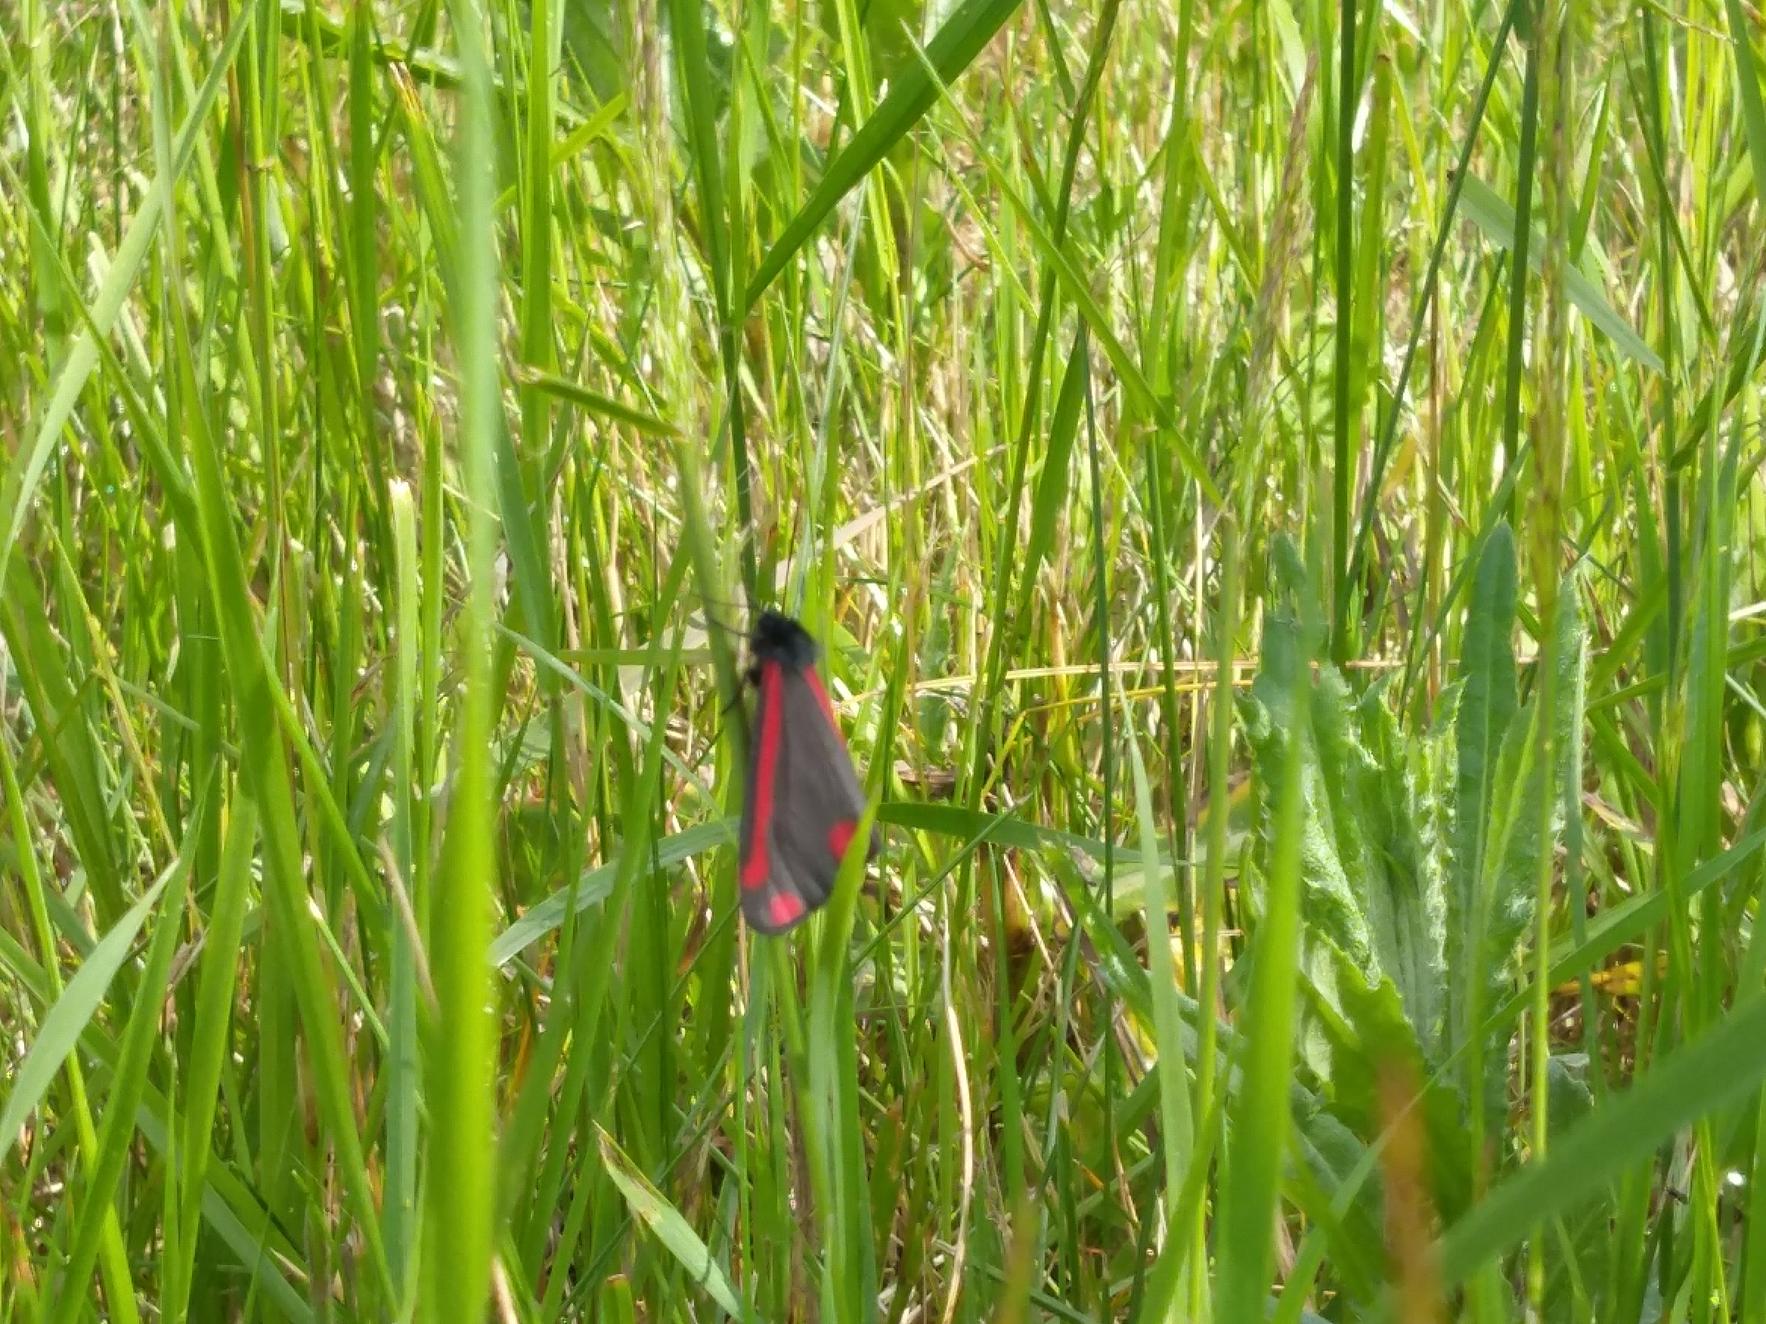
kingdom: Animalia
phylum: Arthropoda
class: Insecta
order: Lepidoptera
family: Erebidae
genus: Tyria
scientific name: Tyria jacobaeae
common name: Blodplet
